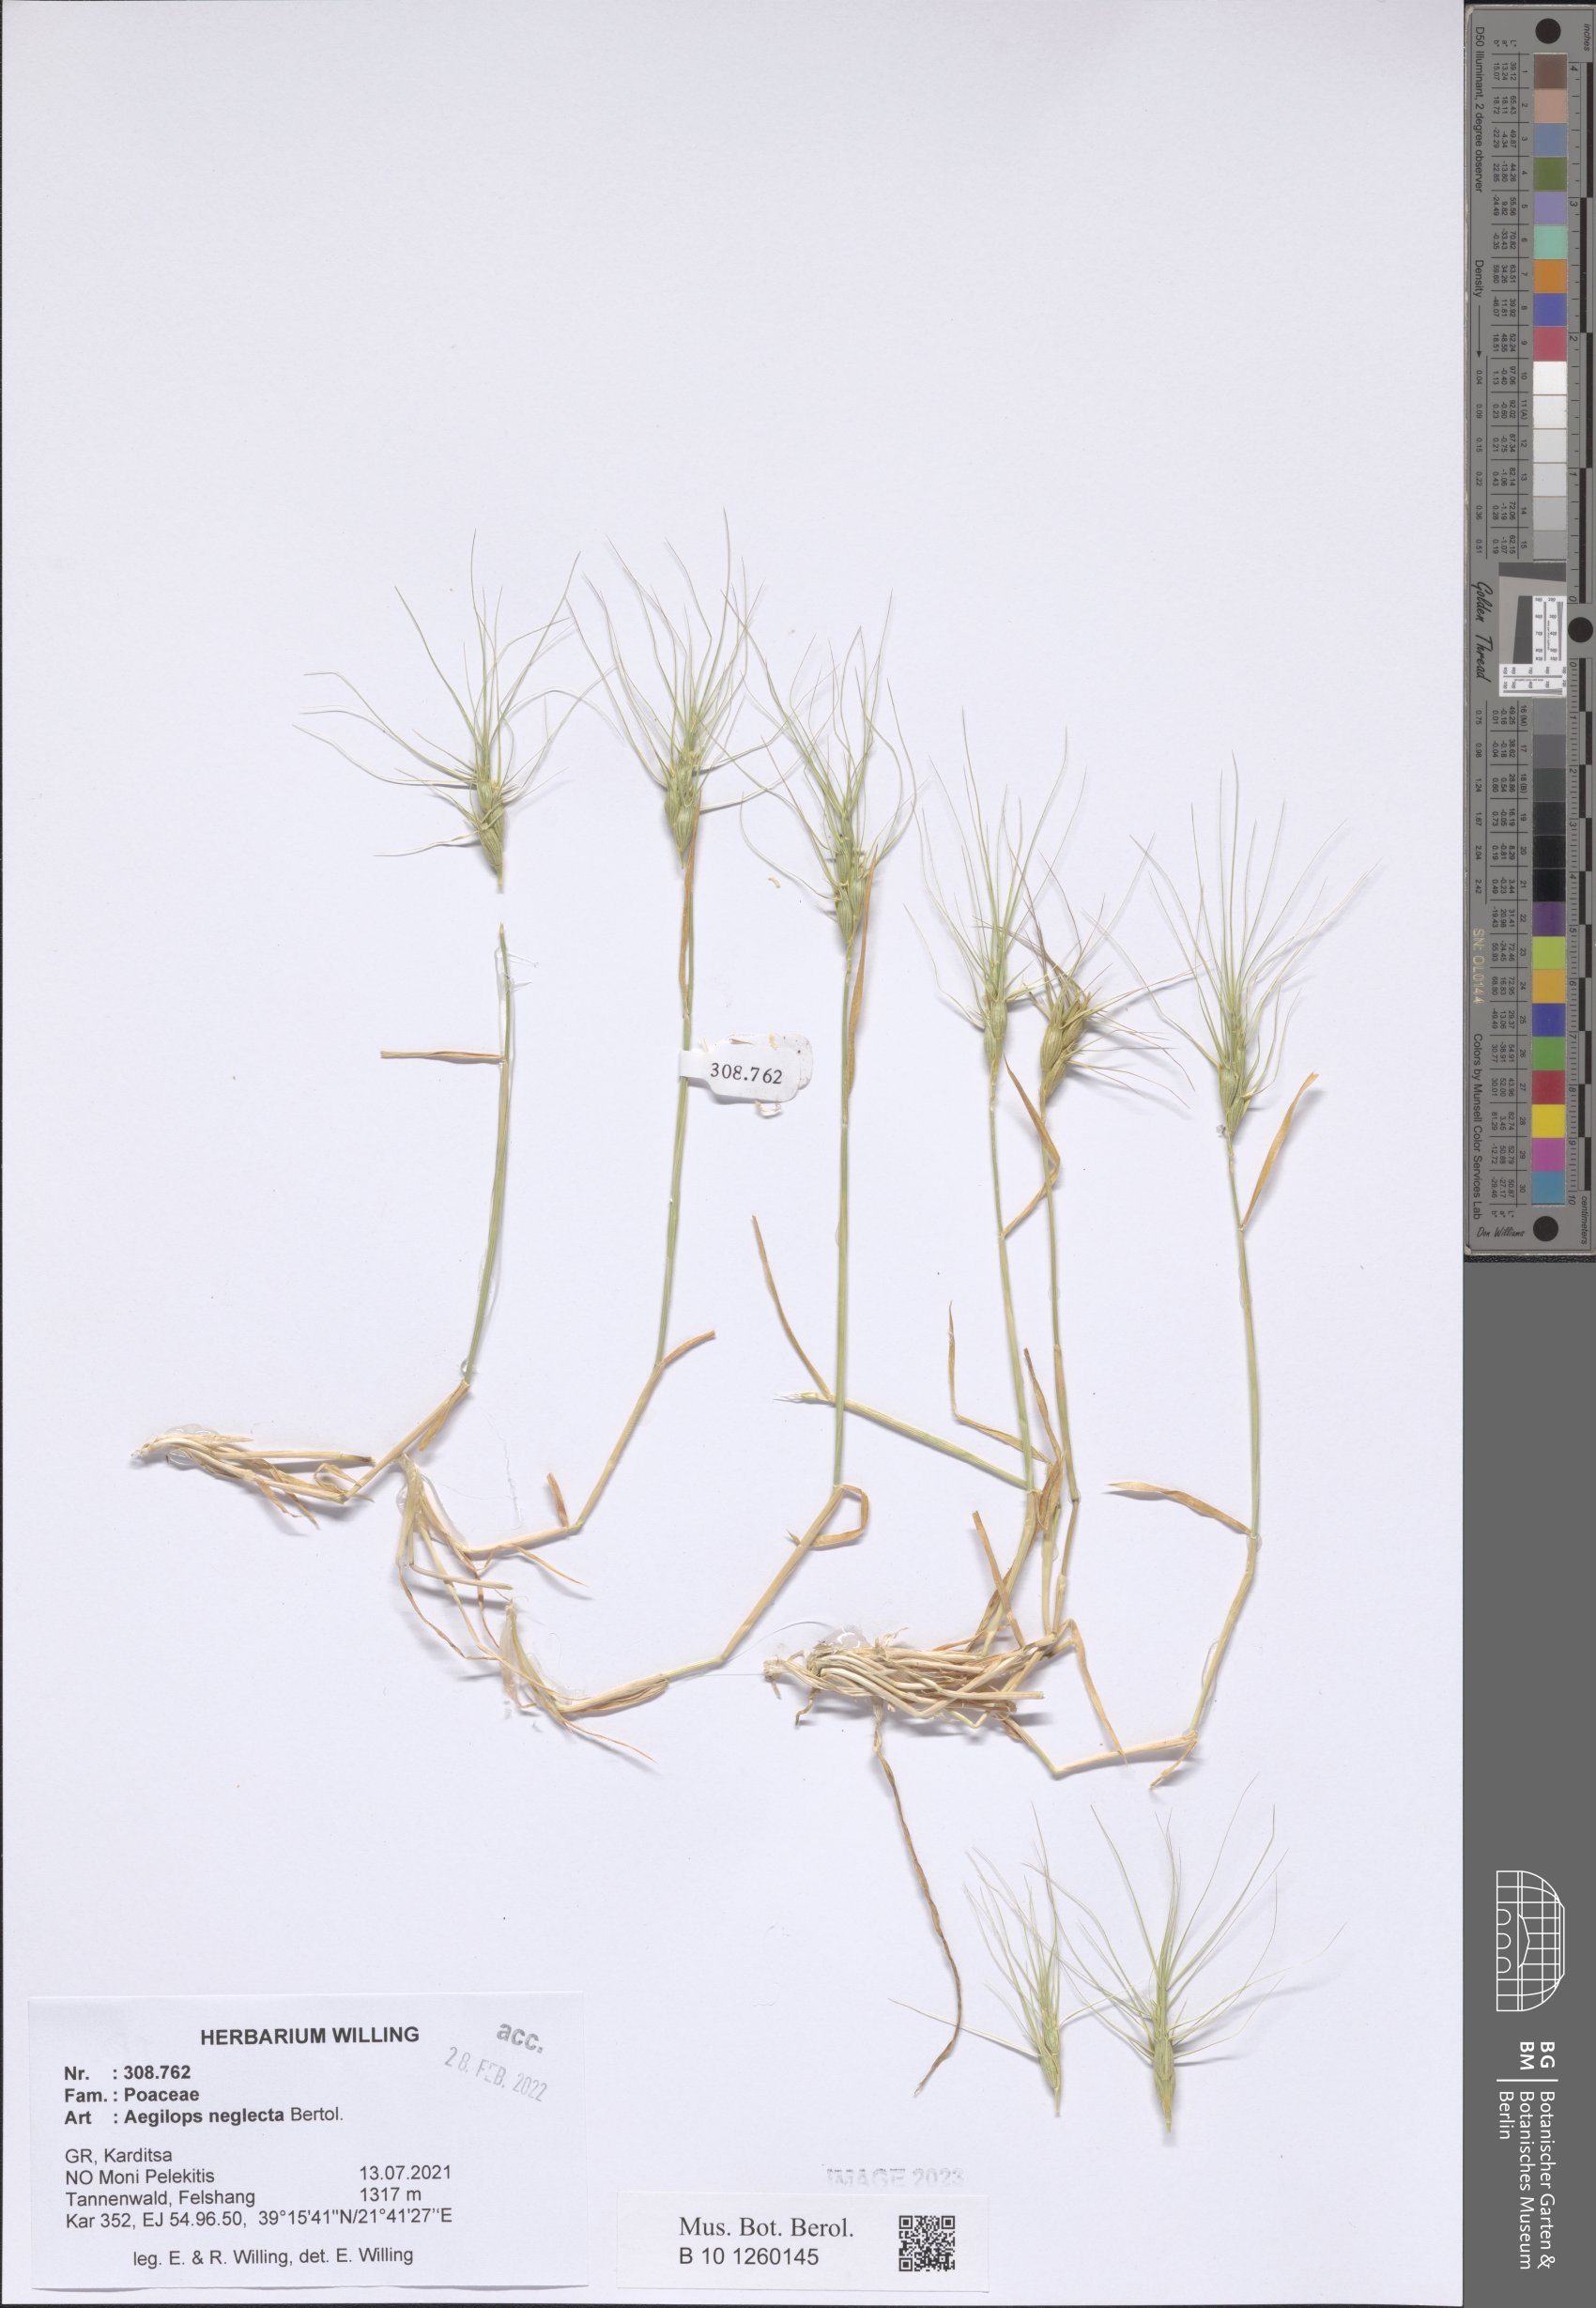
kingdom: Plantae
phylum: Tracheophyta
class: Liliopsida
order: Poales
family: Poaceae
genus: Aegilops
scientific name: Aegilops neglecta
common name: Three-awn goat grass
